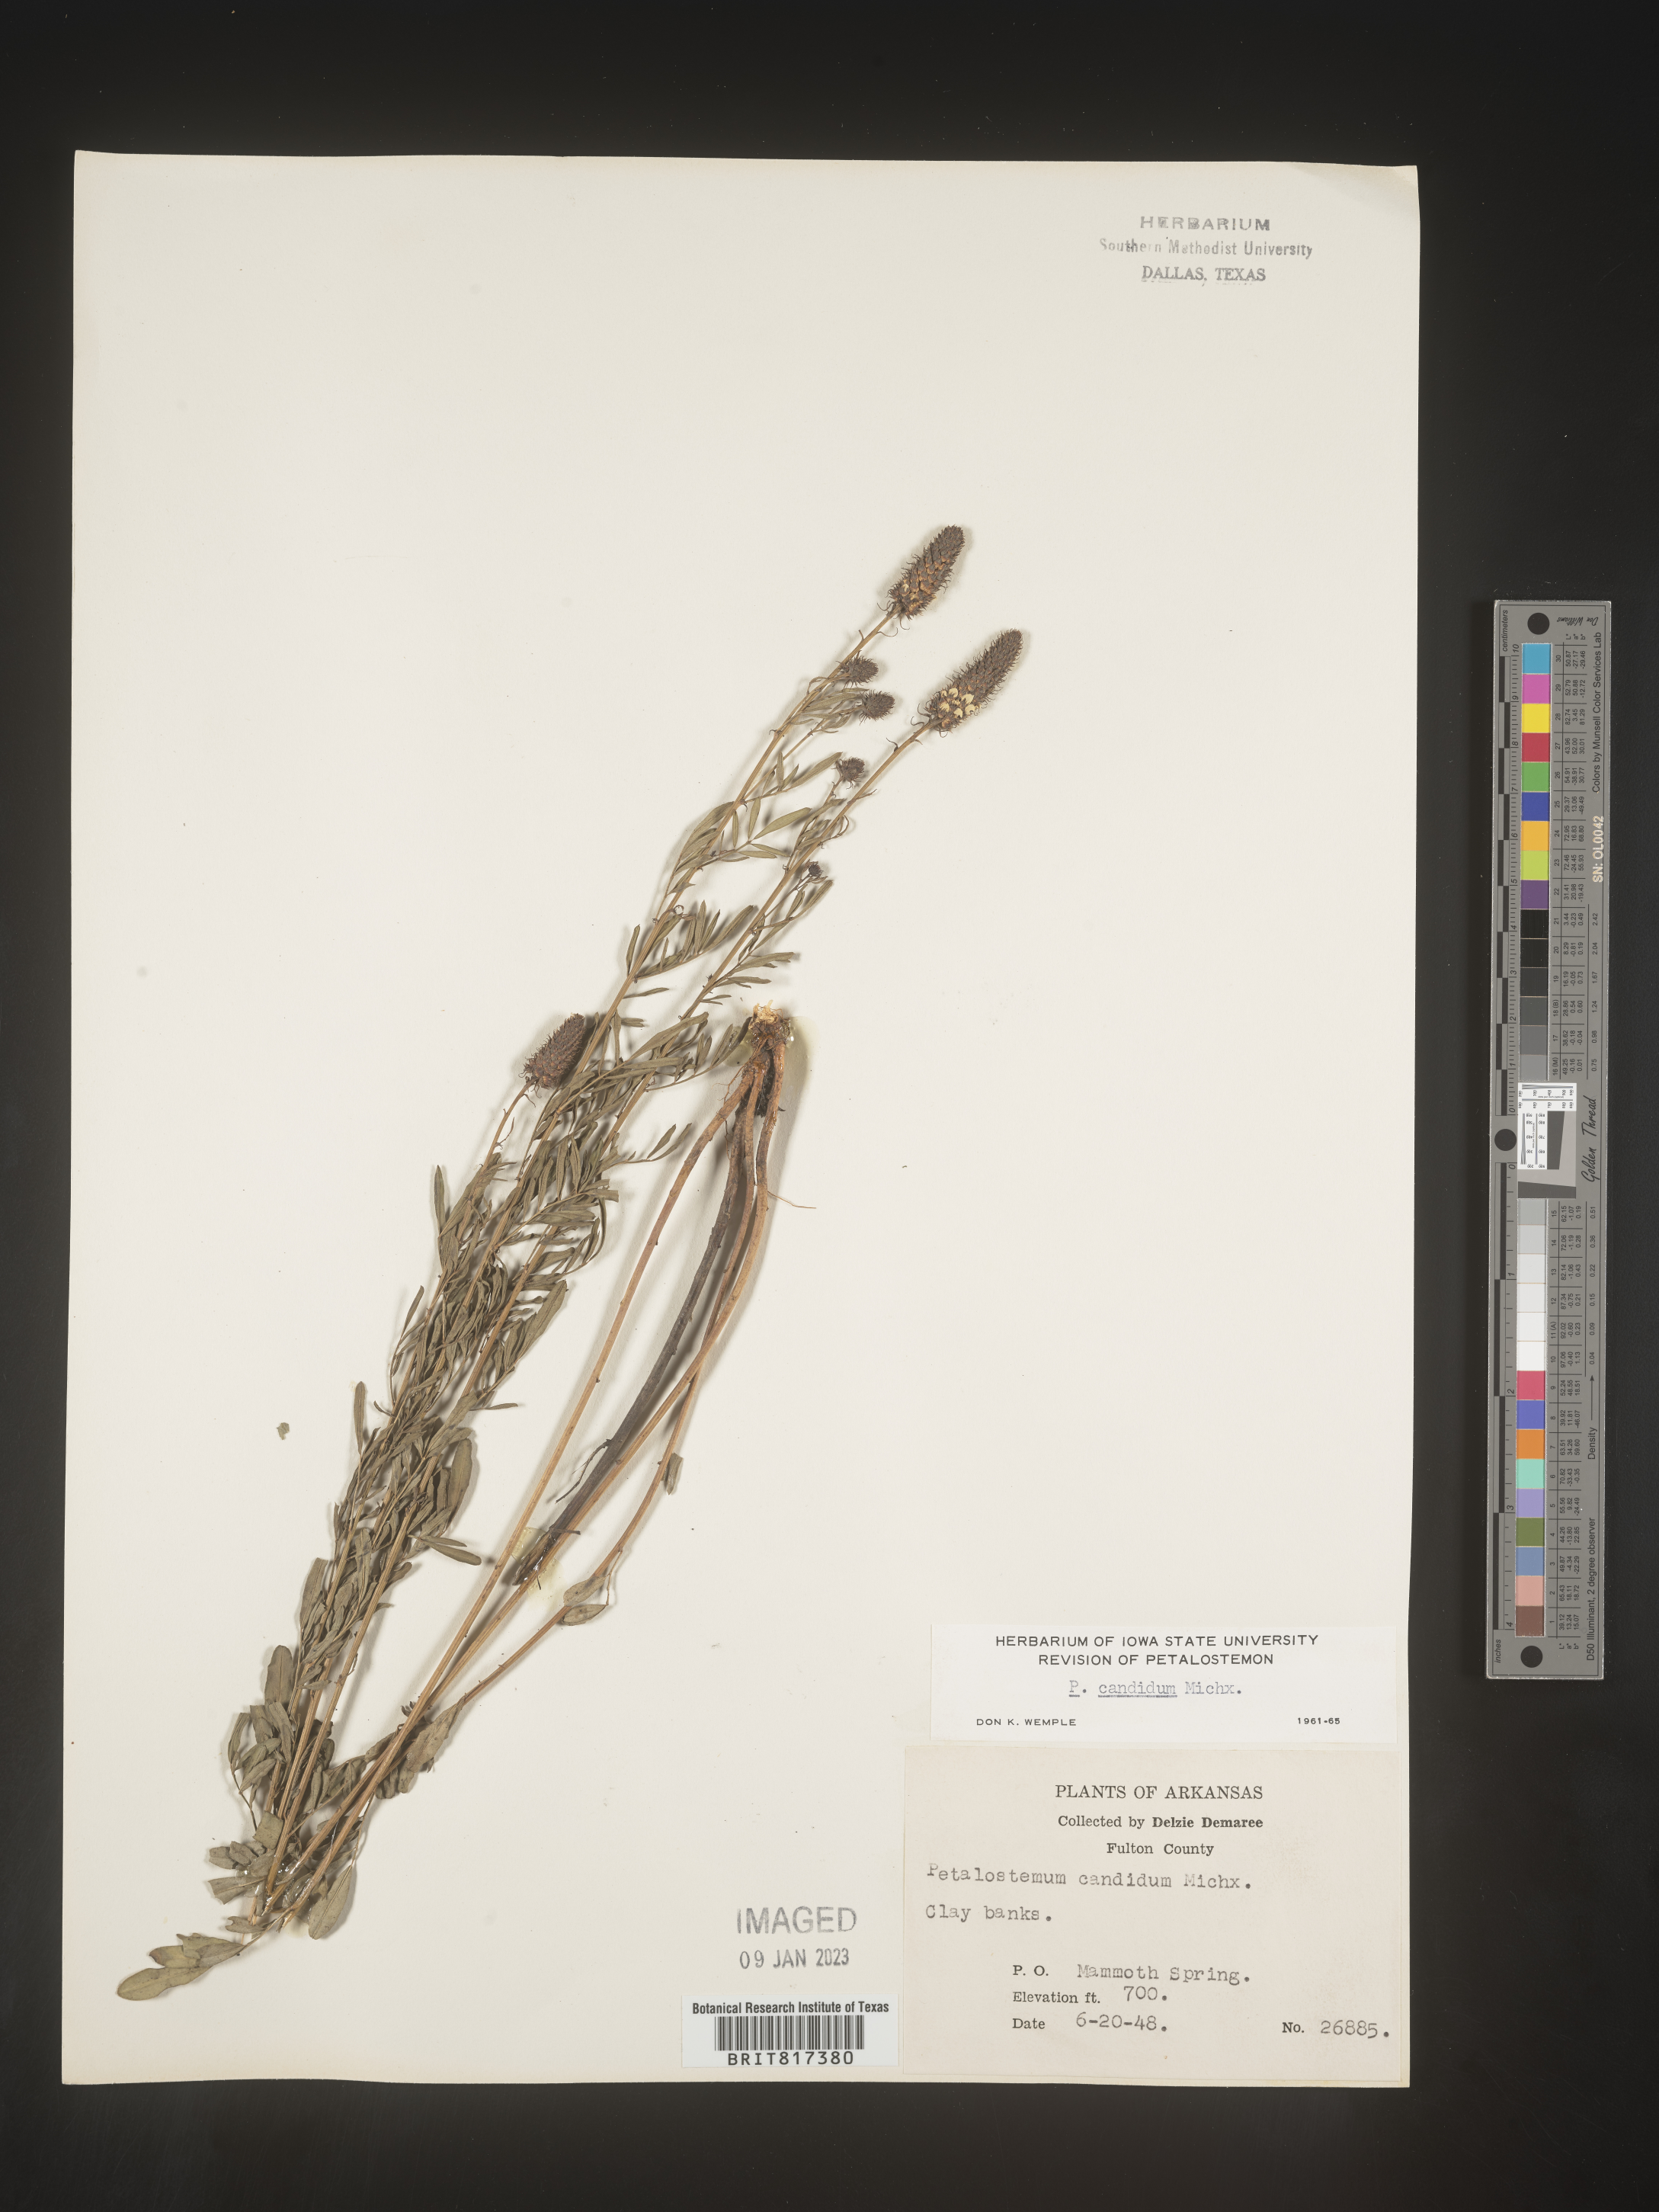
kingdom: Plantae
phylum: Tracheophyta
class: Magnoliopsida
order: Fabales
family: Fabaceae
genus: Dalea
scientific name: Dalea candida
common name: White prairie-clover
